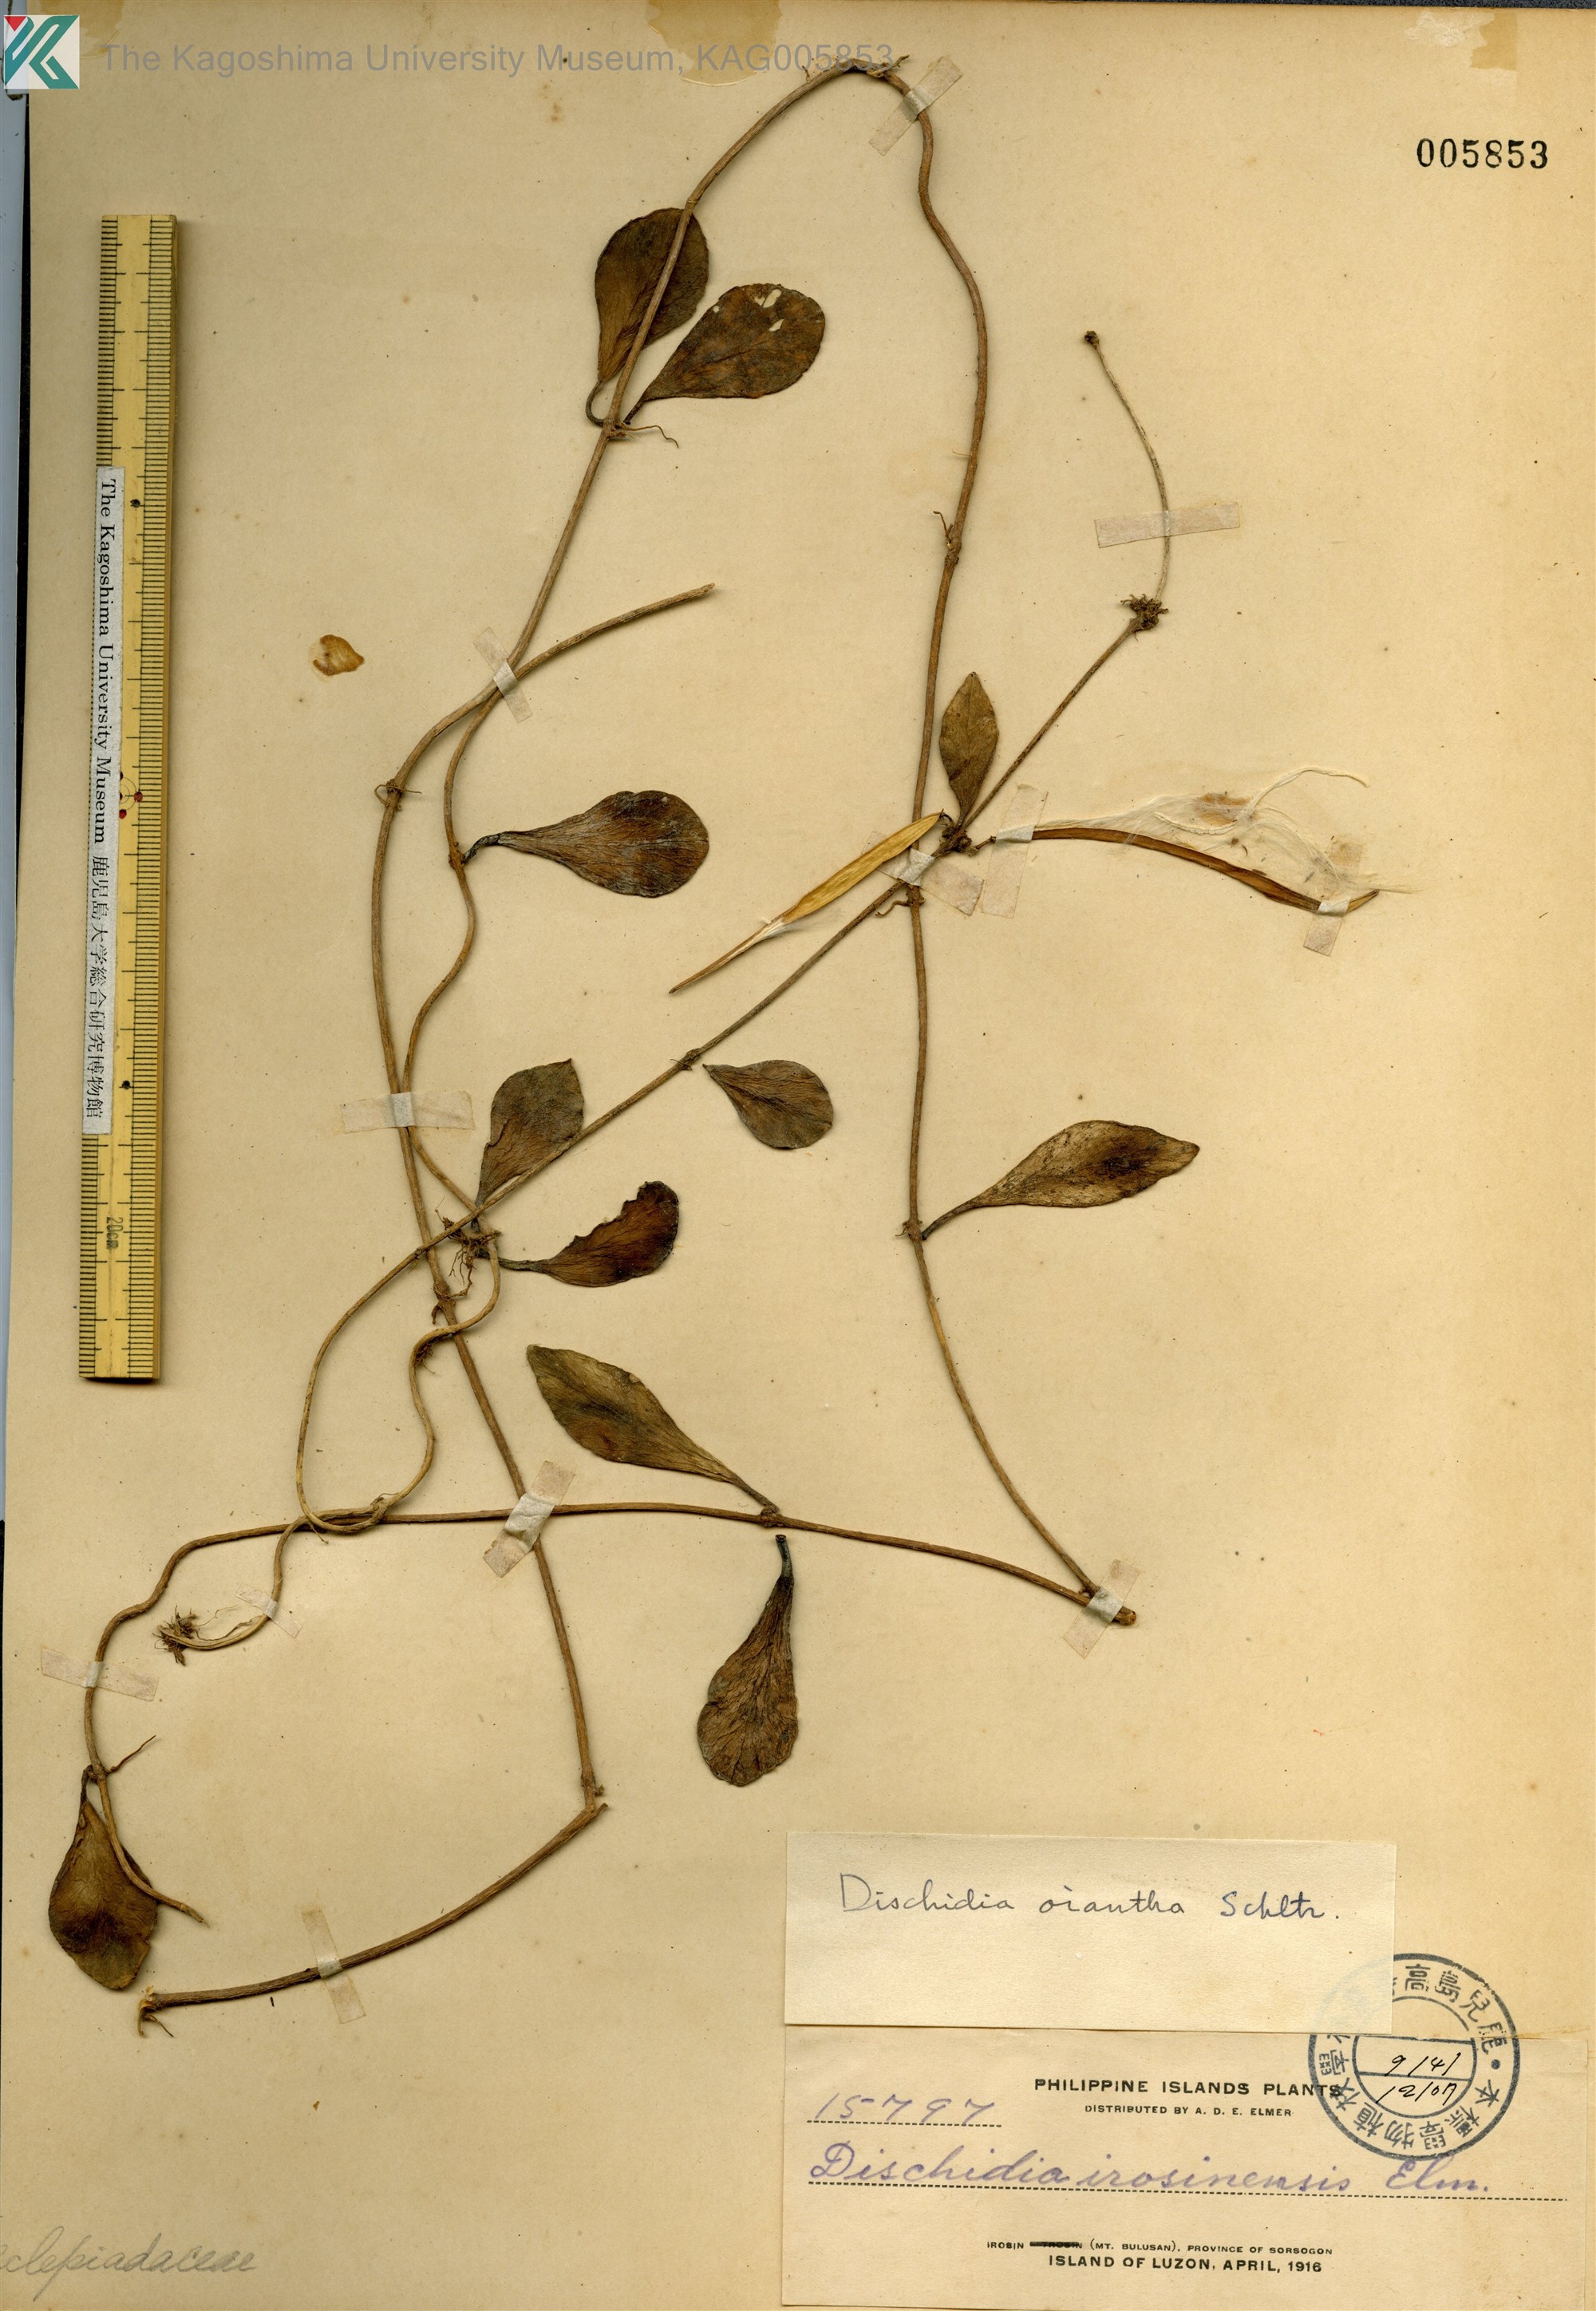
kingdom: Plantae
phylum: Tracheophyta
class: Magnoliopsida
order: Gentianales
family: Apocynaceae
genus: Dischidia
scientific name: Dischidia oiantha
